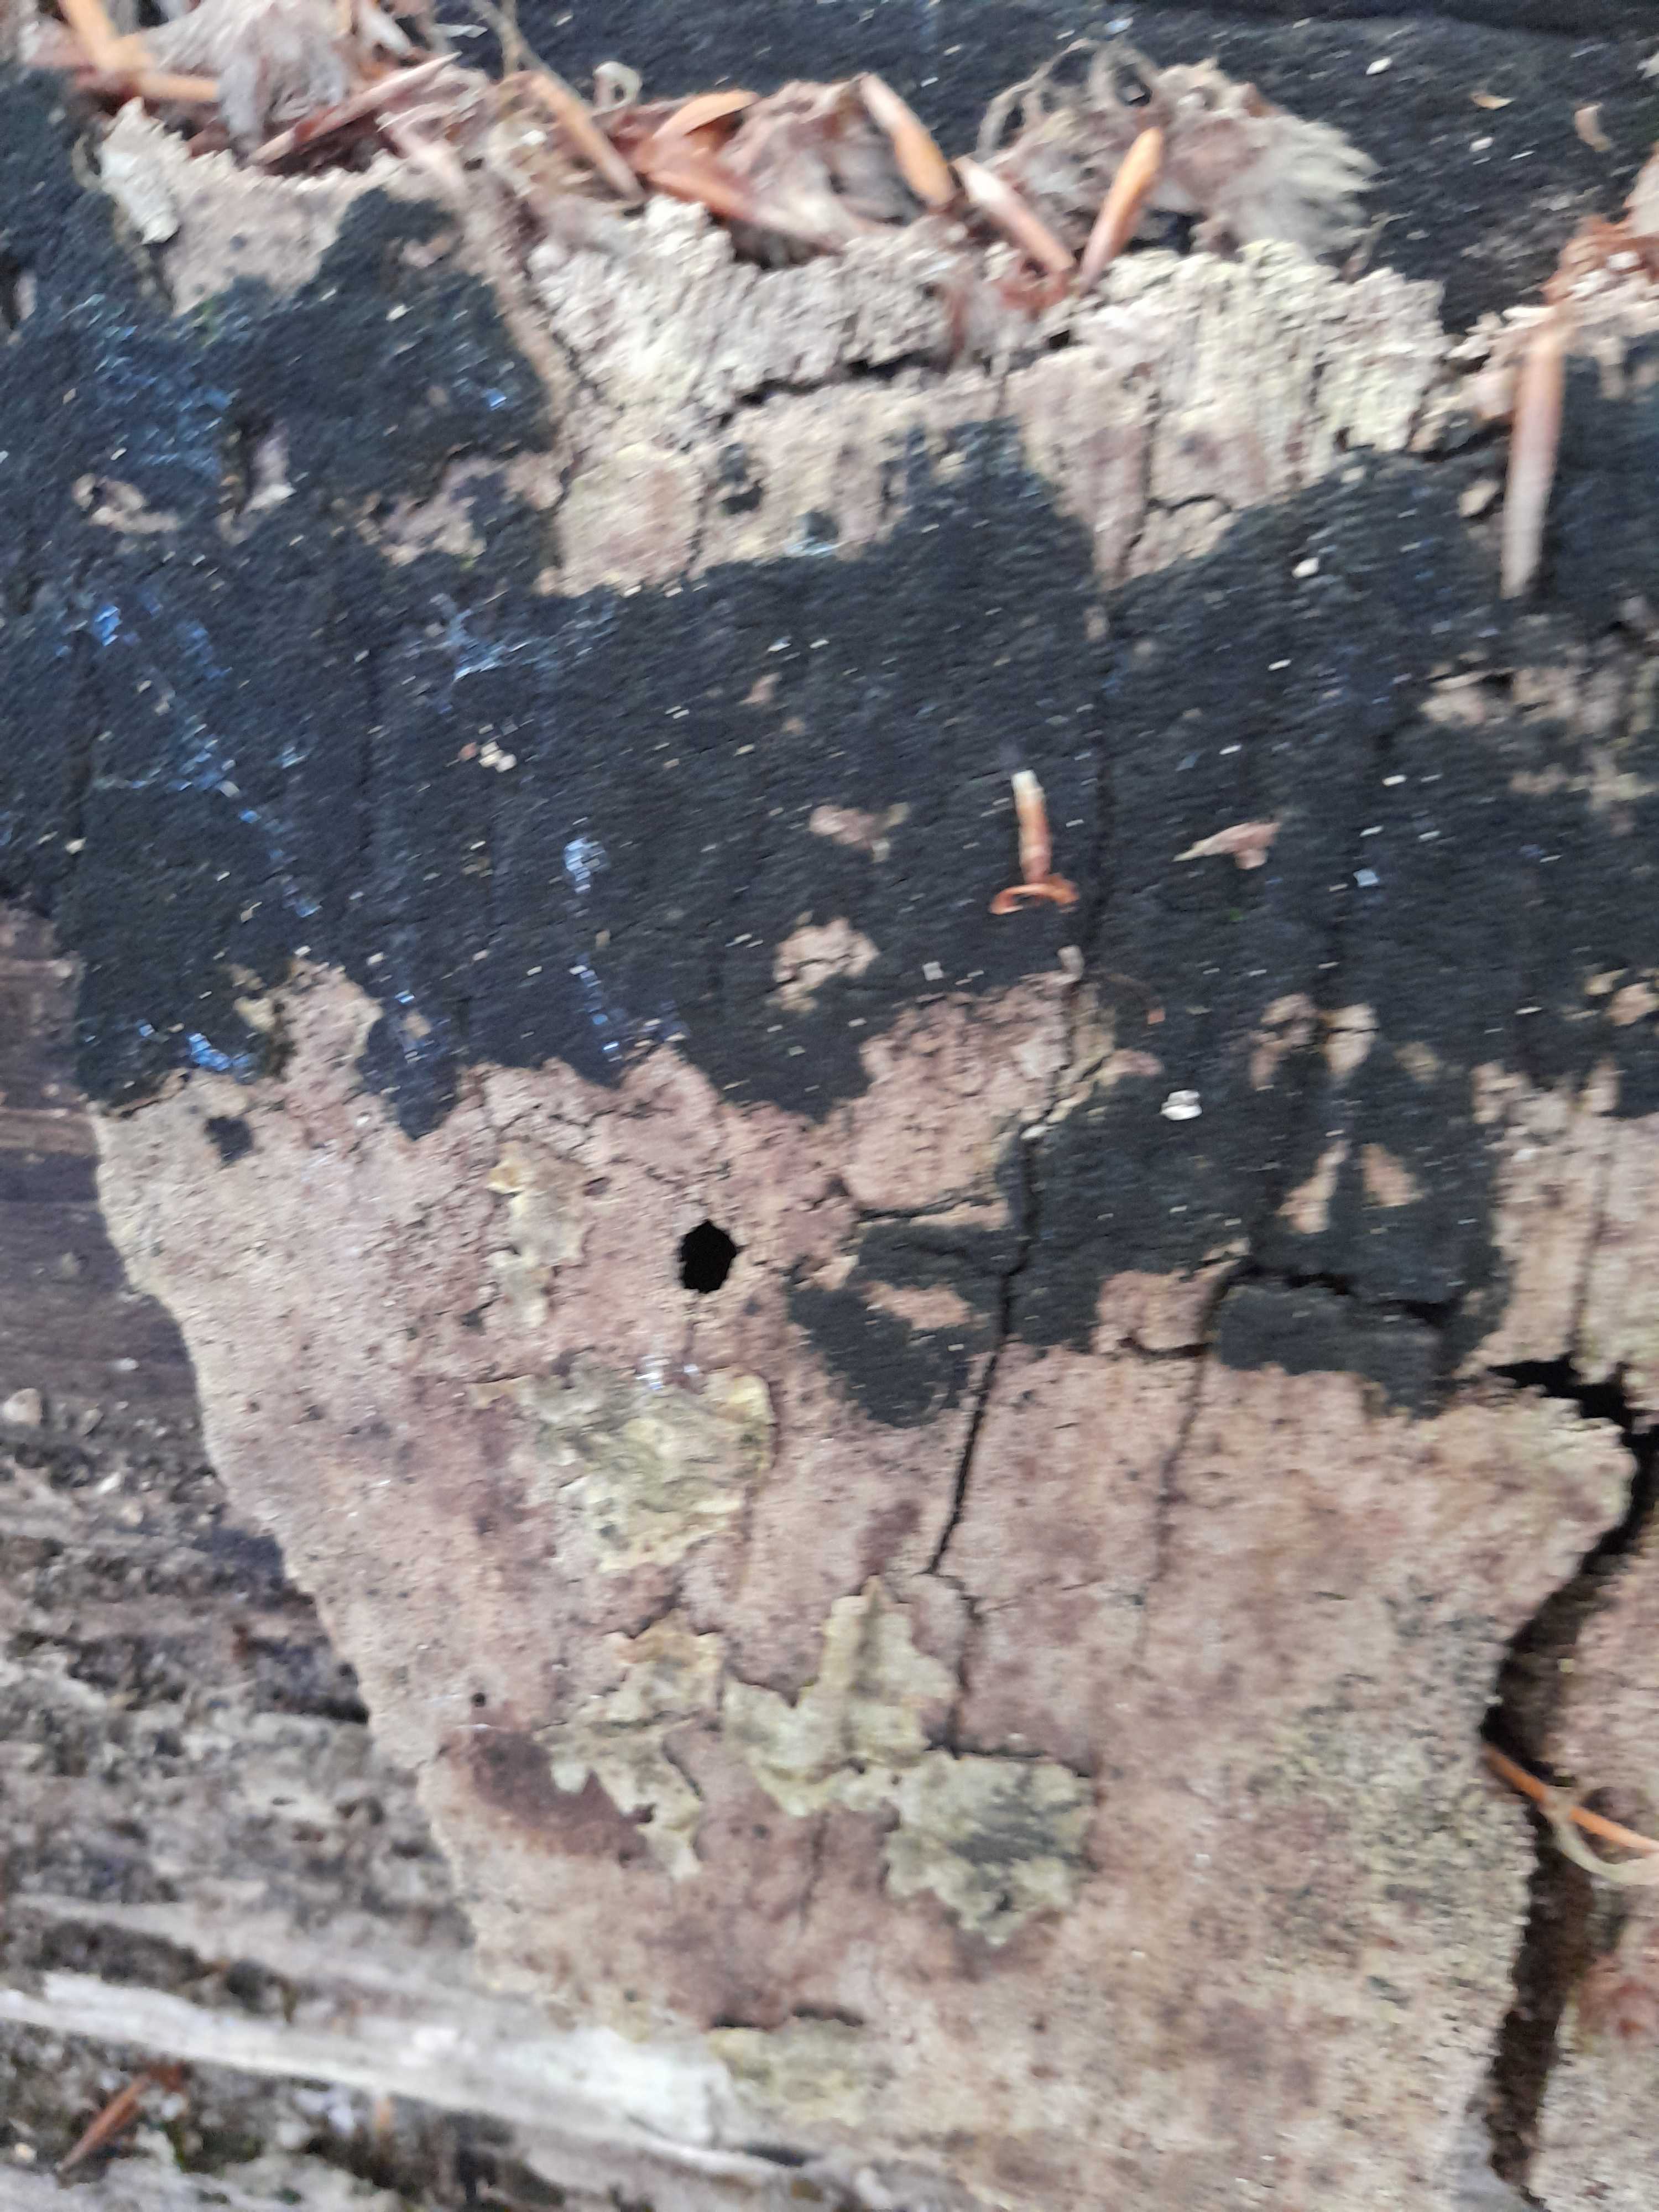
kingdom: Fungi
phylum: Ascomycota
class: Sordariomycetes
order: Xylariales
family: Diatrypaceae
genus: Eutypa
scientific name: Eutypa spinosa
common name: grov kulskorpe
